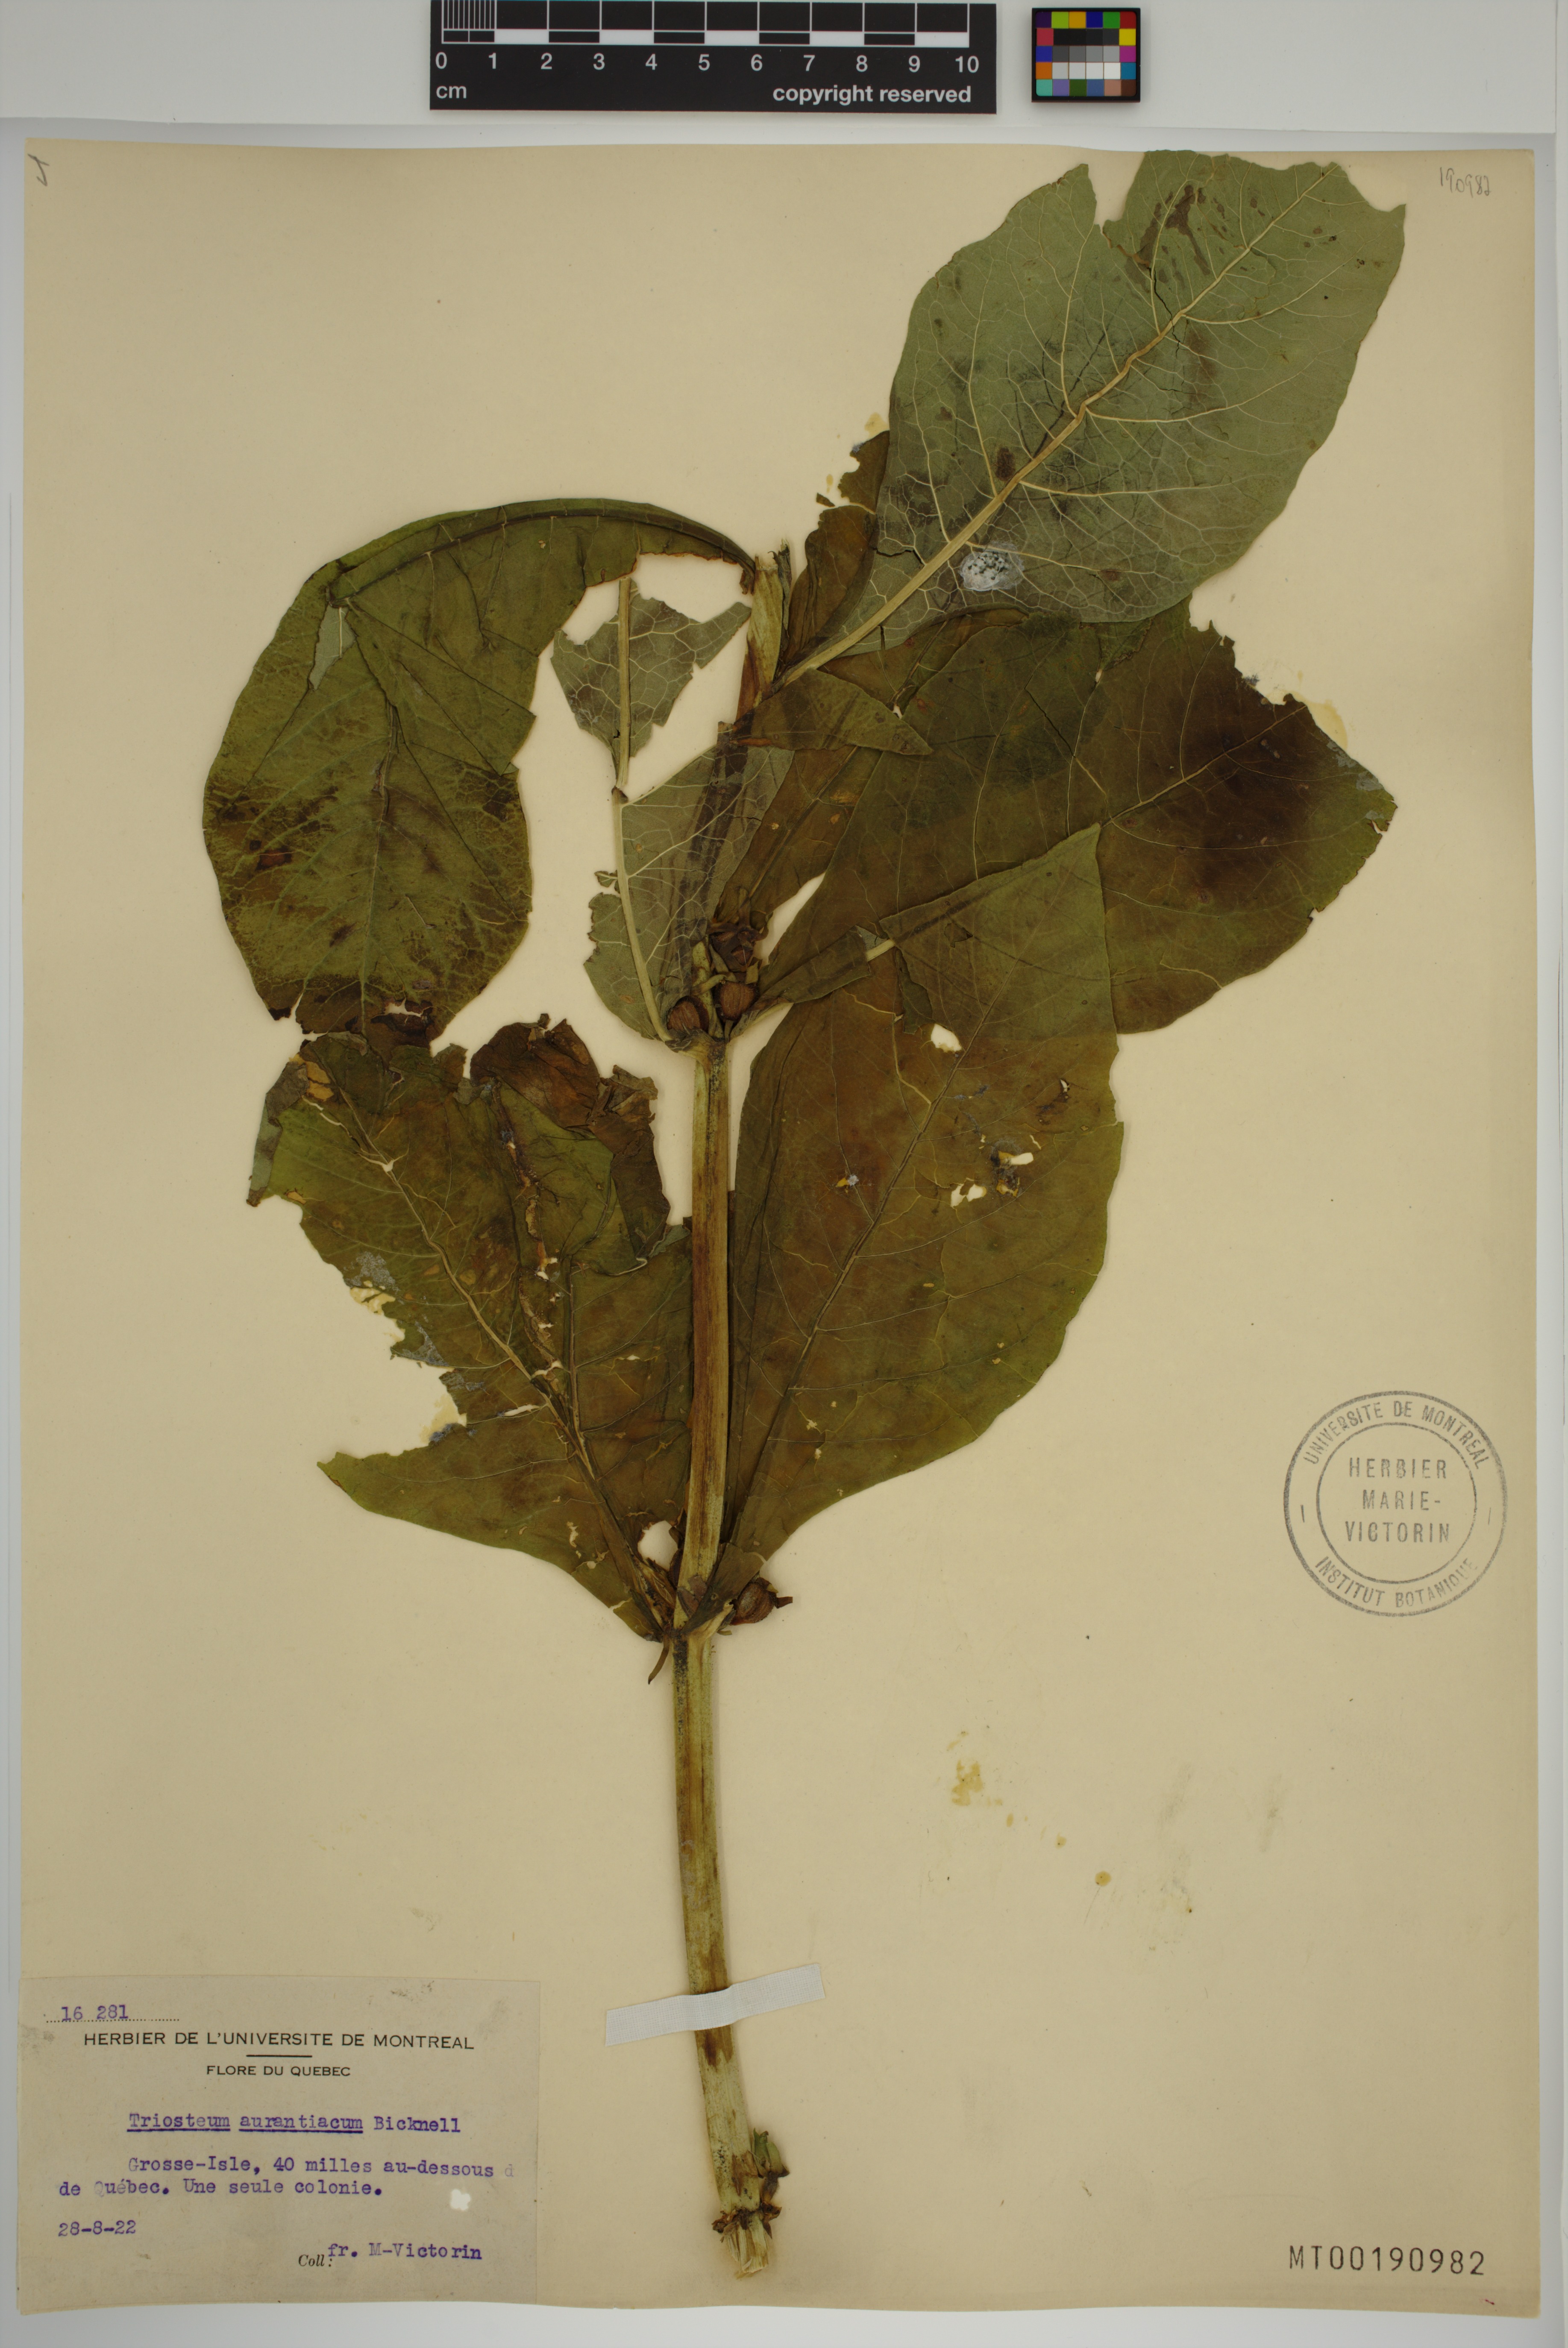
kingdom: Plantae
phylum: Tracheophyta
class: Magnoliopsida
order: Dipsacales
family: Caprifoliaceae
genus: Triosteum
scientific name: Triosteum aurantiacum
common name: Coffee tinker's-weed
